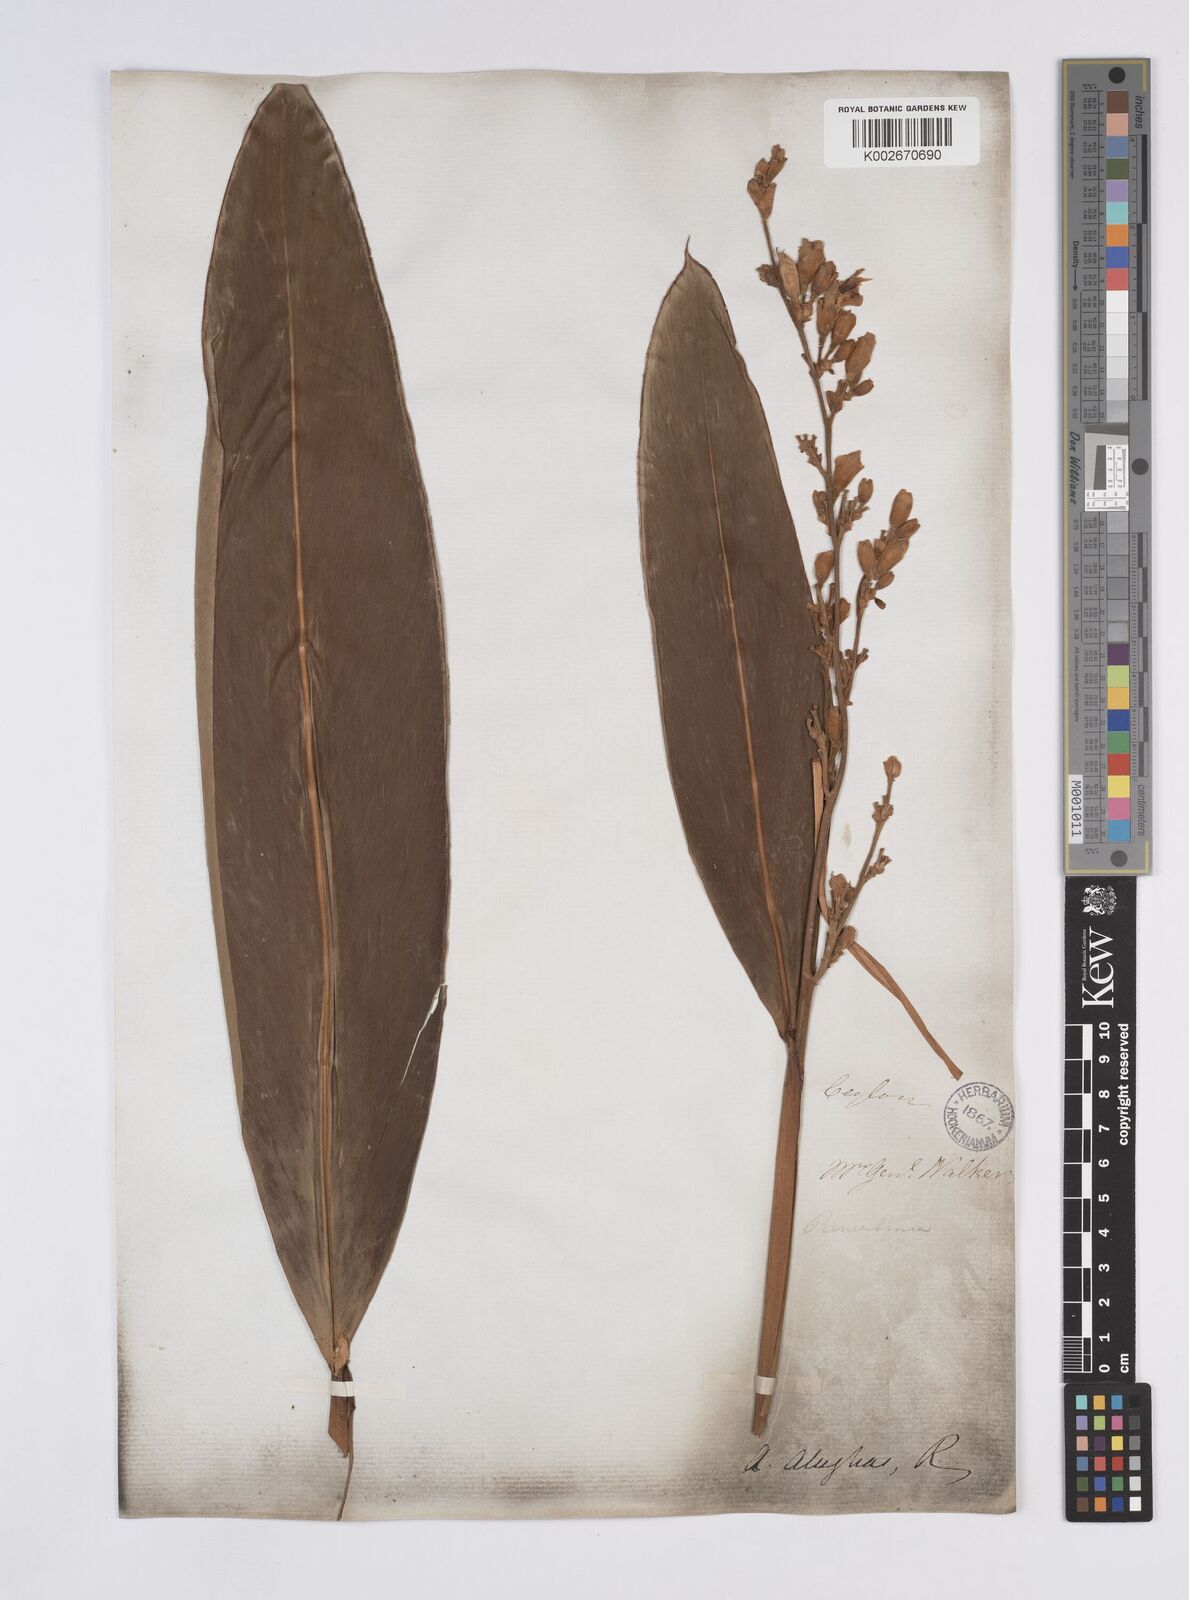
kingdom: Plantae
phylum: Tracheophyta
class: Liliopsida
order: Zingiberales
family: Zingiberaceae
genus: Alpinia
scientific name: Alpinia nigra
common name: Black fruited galanga
